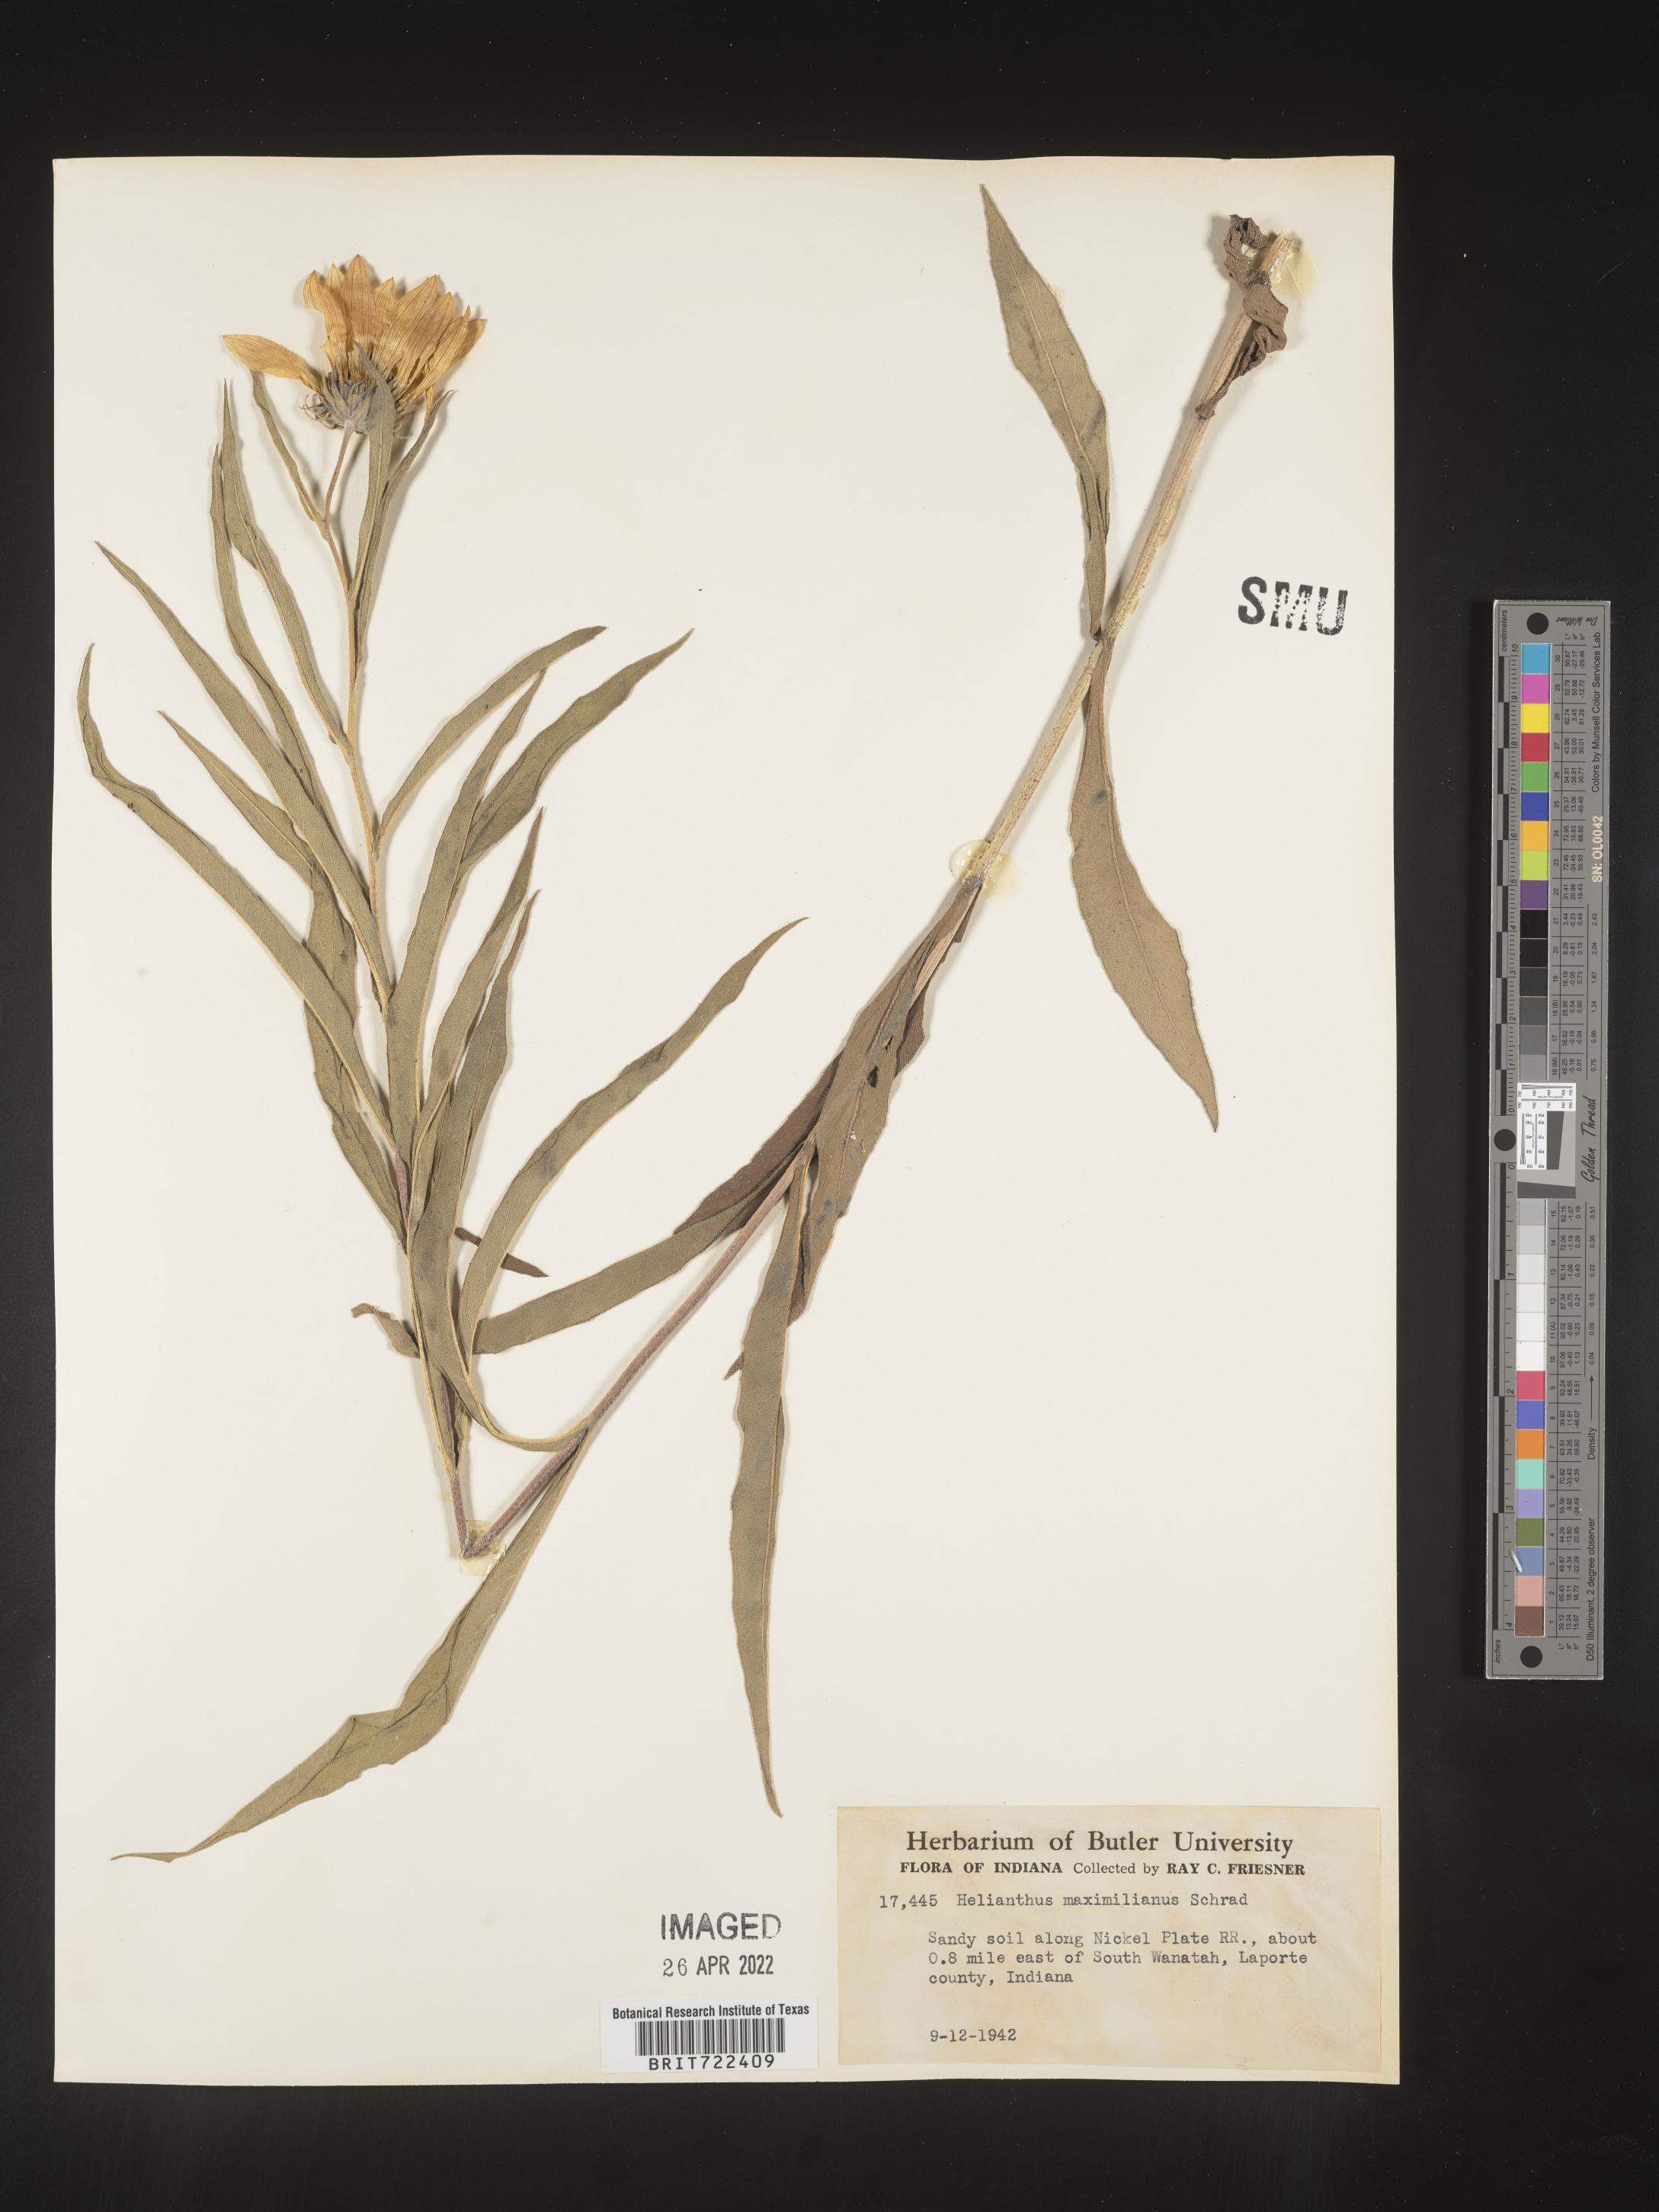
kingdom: Plantae
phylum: Tracheophyta
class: Magnoliopsida
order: Asterales
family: Asteraceae
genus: Helianthus
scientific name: Helianthus maximiliani
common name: Maximilian's sunflower
